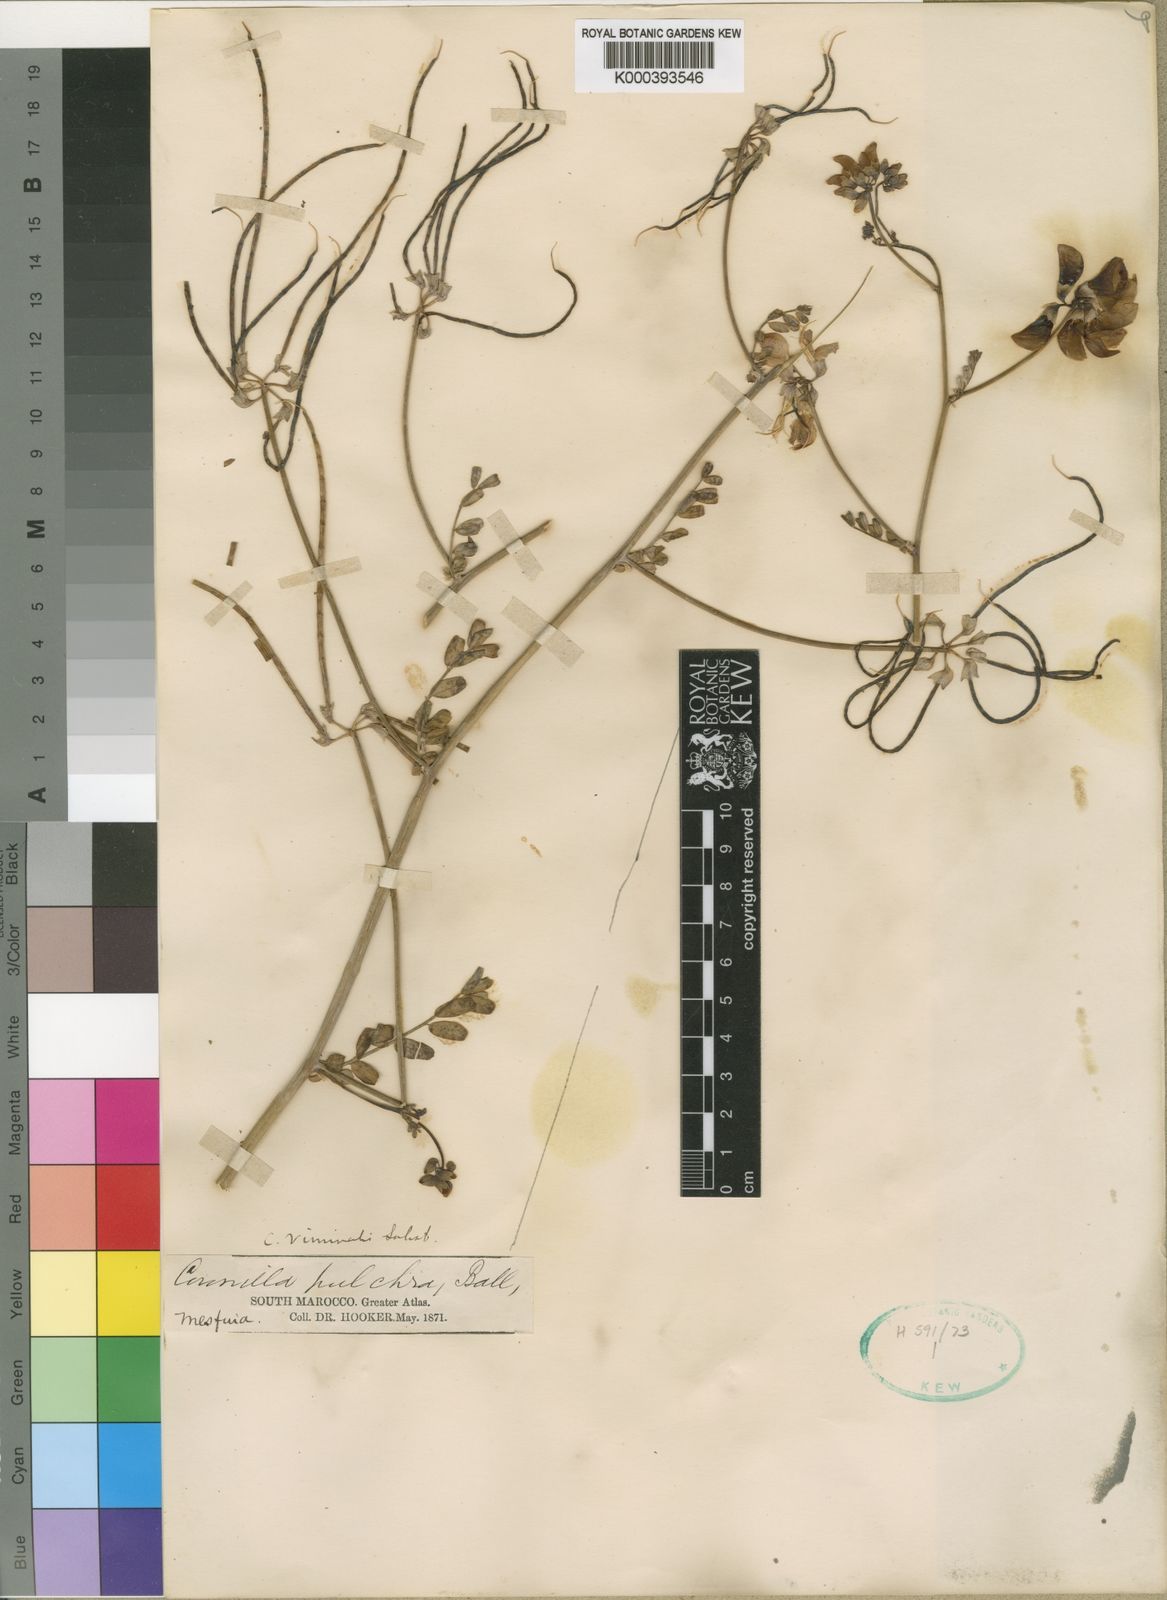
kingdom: Plantae
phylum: Tracheophyta
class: Magnoliopsida
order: Fabales
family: Fabaceae
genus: Coronilla
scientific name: Coronilla viminalis
